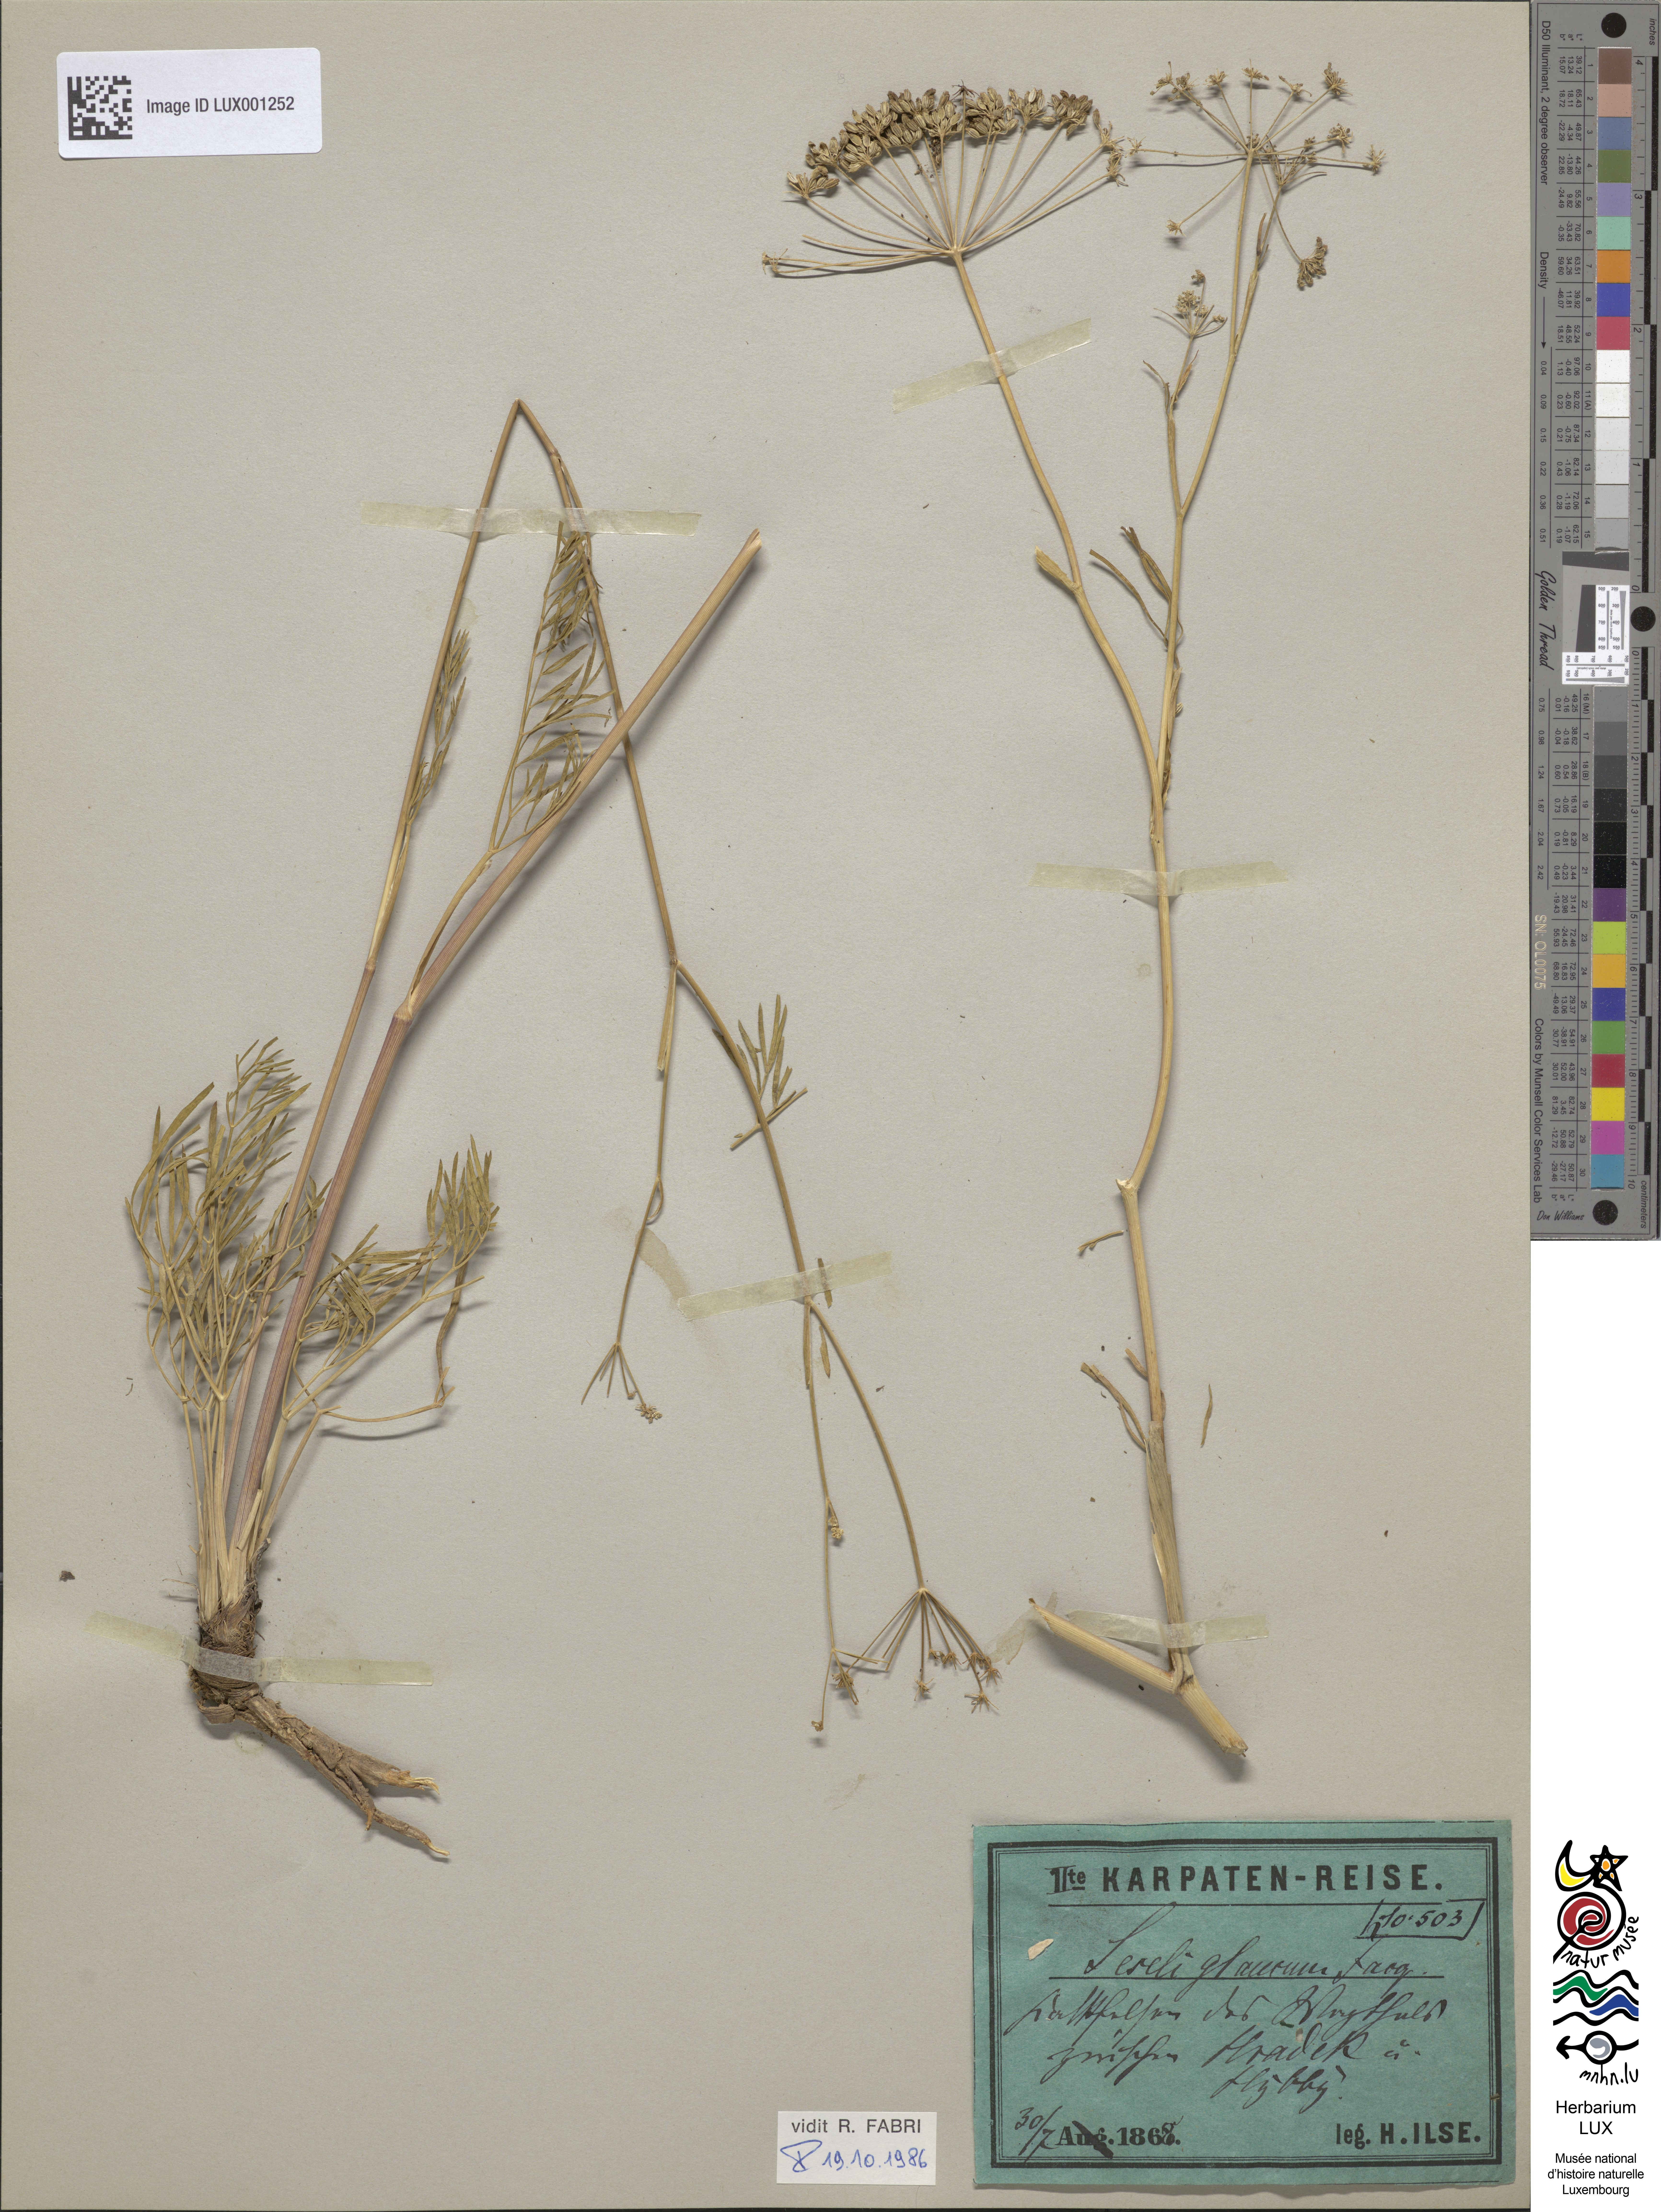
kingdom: Plantae
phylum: Tracheophyta
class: Magnoliopsida
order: Apiales
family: Apiaceae
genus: Seseli
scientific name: Seseli montanum
